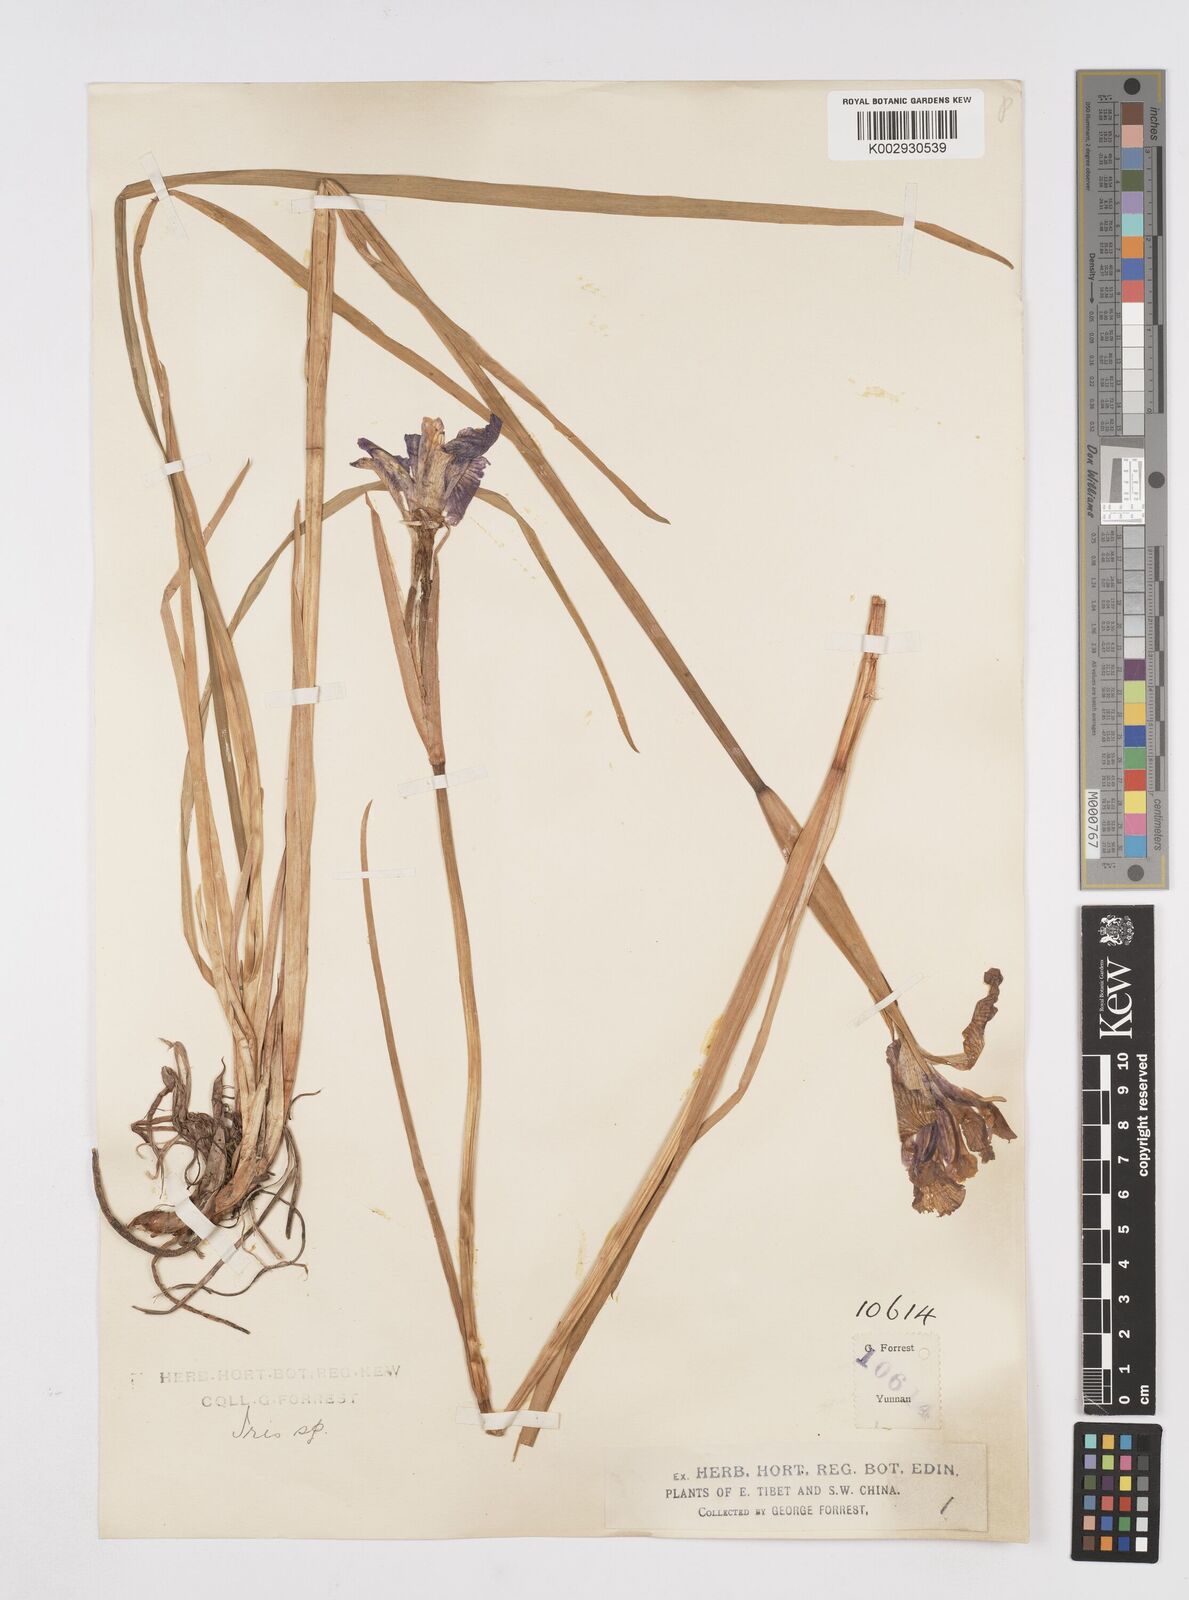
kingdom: Plantae
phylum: Tracheophyta
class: Liliopsida
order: Asparagales
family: Iridaceae
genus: Iris
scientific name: Iris bulleyana
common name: Southwest iris
